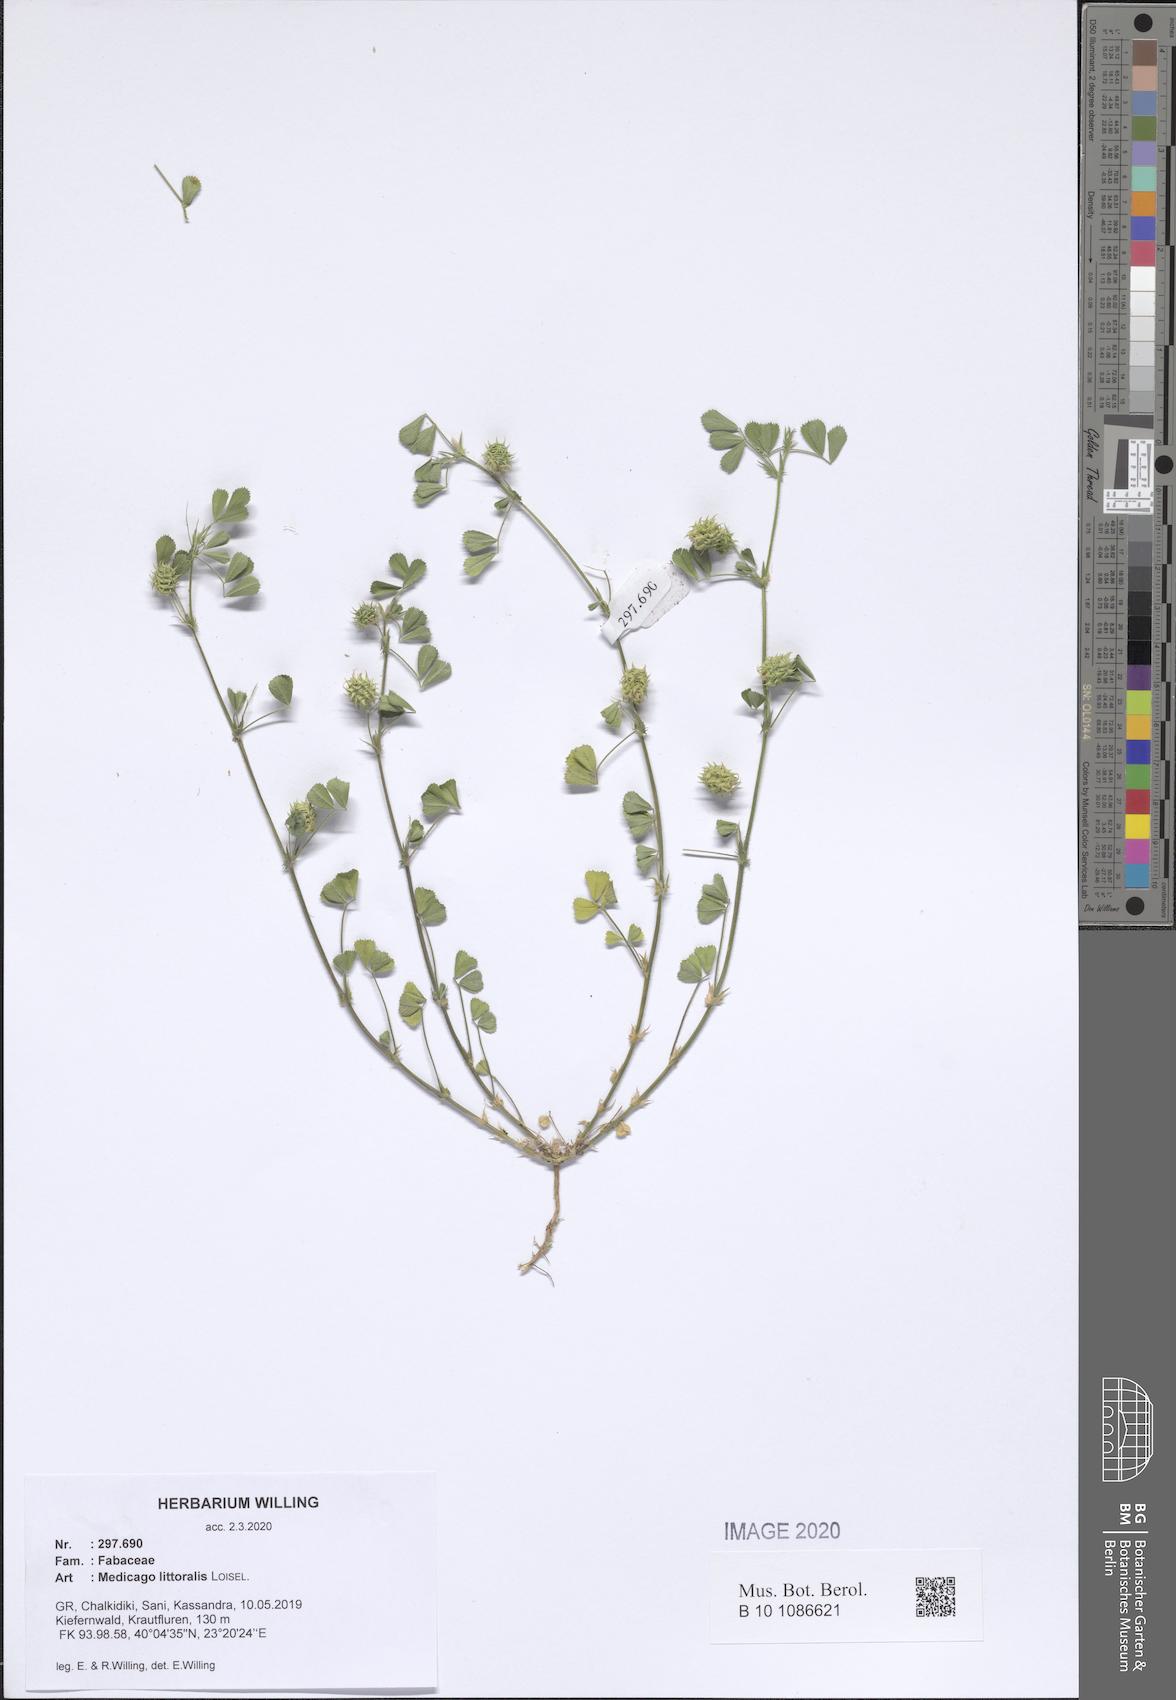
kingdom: Plantae
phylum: Tracheophyta
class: Magnoliopsida
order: Fabales
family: Fabaceae
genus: Medicago
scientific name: Medicago littoralis
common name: Shore medick
